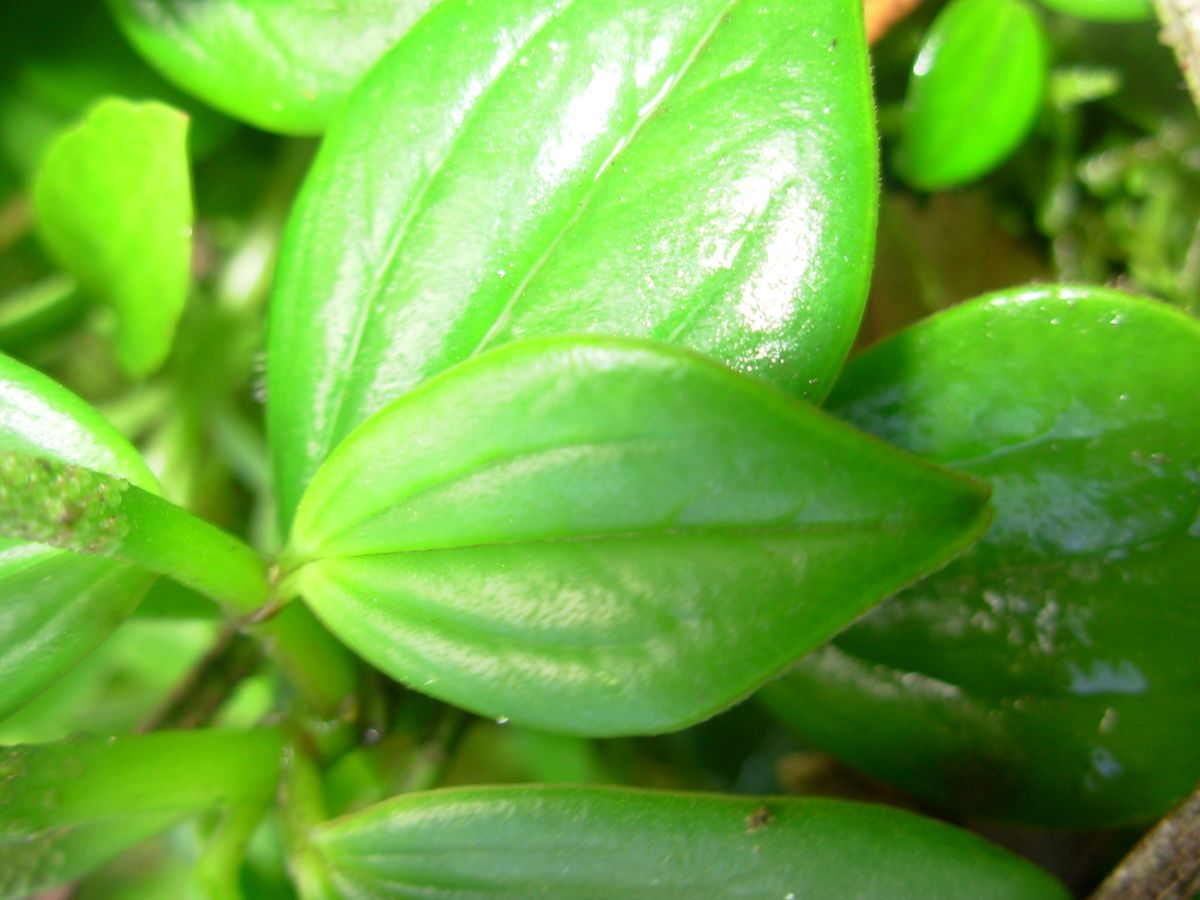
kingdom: Plantae
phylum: Tracheophyta
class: Magnoliopsida
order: Piperales
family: Piperaceae
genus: Peperomia
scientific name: Peperomia dendrophila
